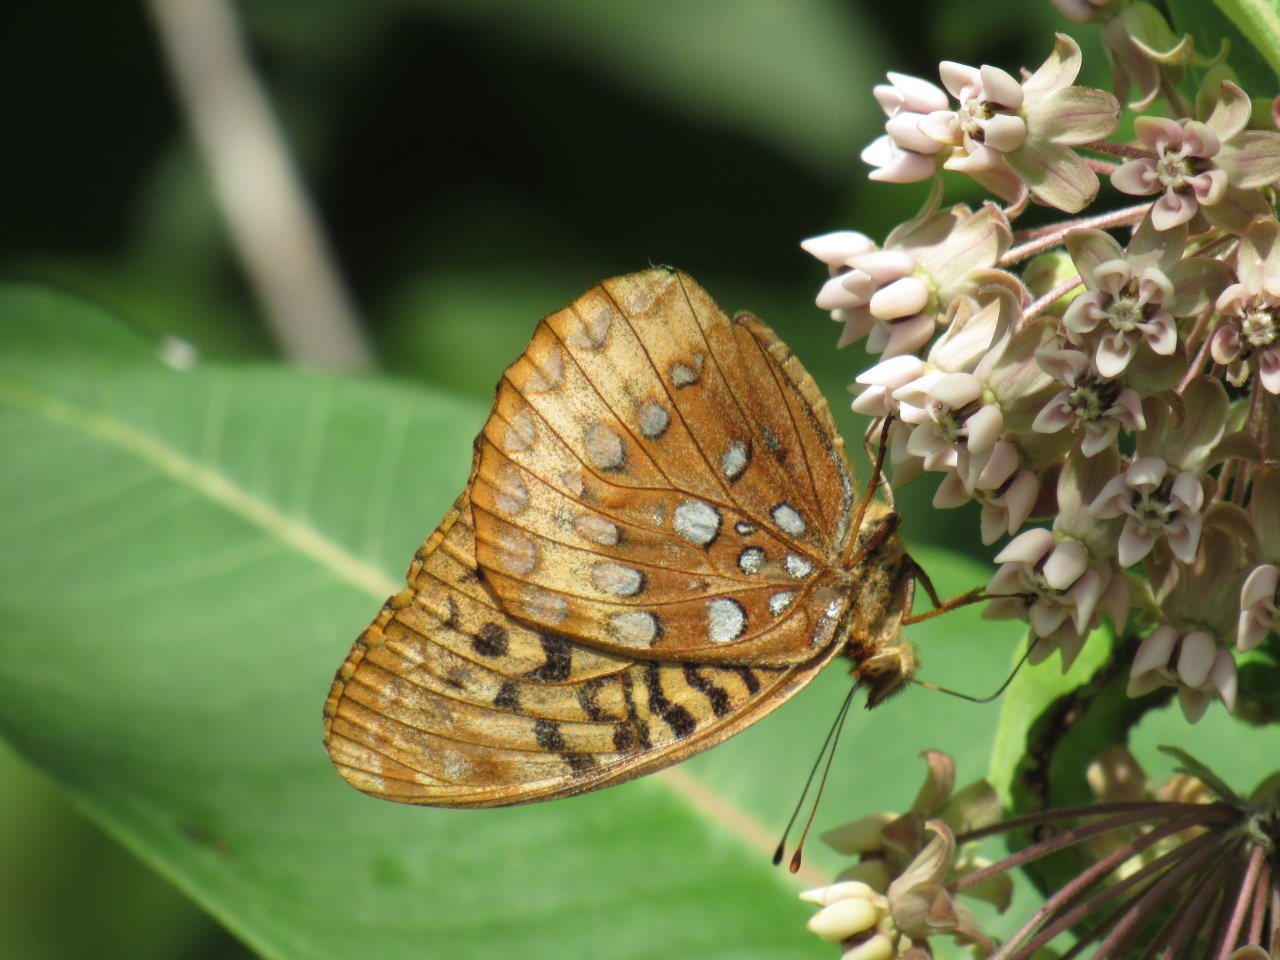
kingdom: Animalia
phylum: Arthropoda
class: Insecta
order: Lepidoptera
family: Nymphalidae
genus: Speyeria
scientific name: Speyeria cybele
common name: Great Spangled Fritillary
